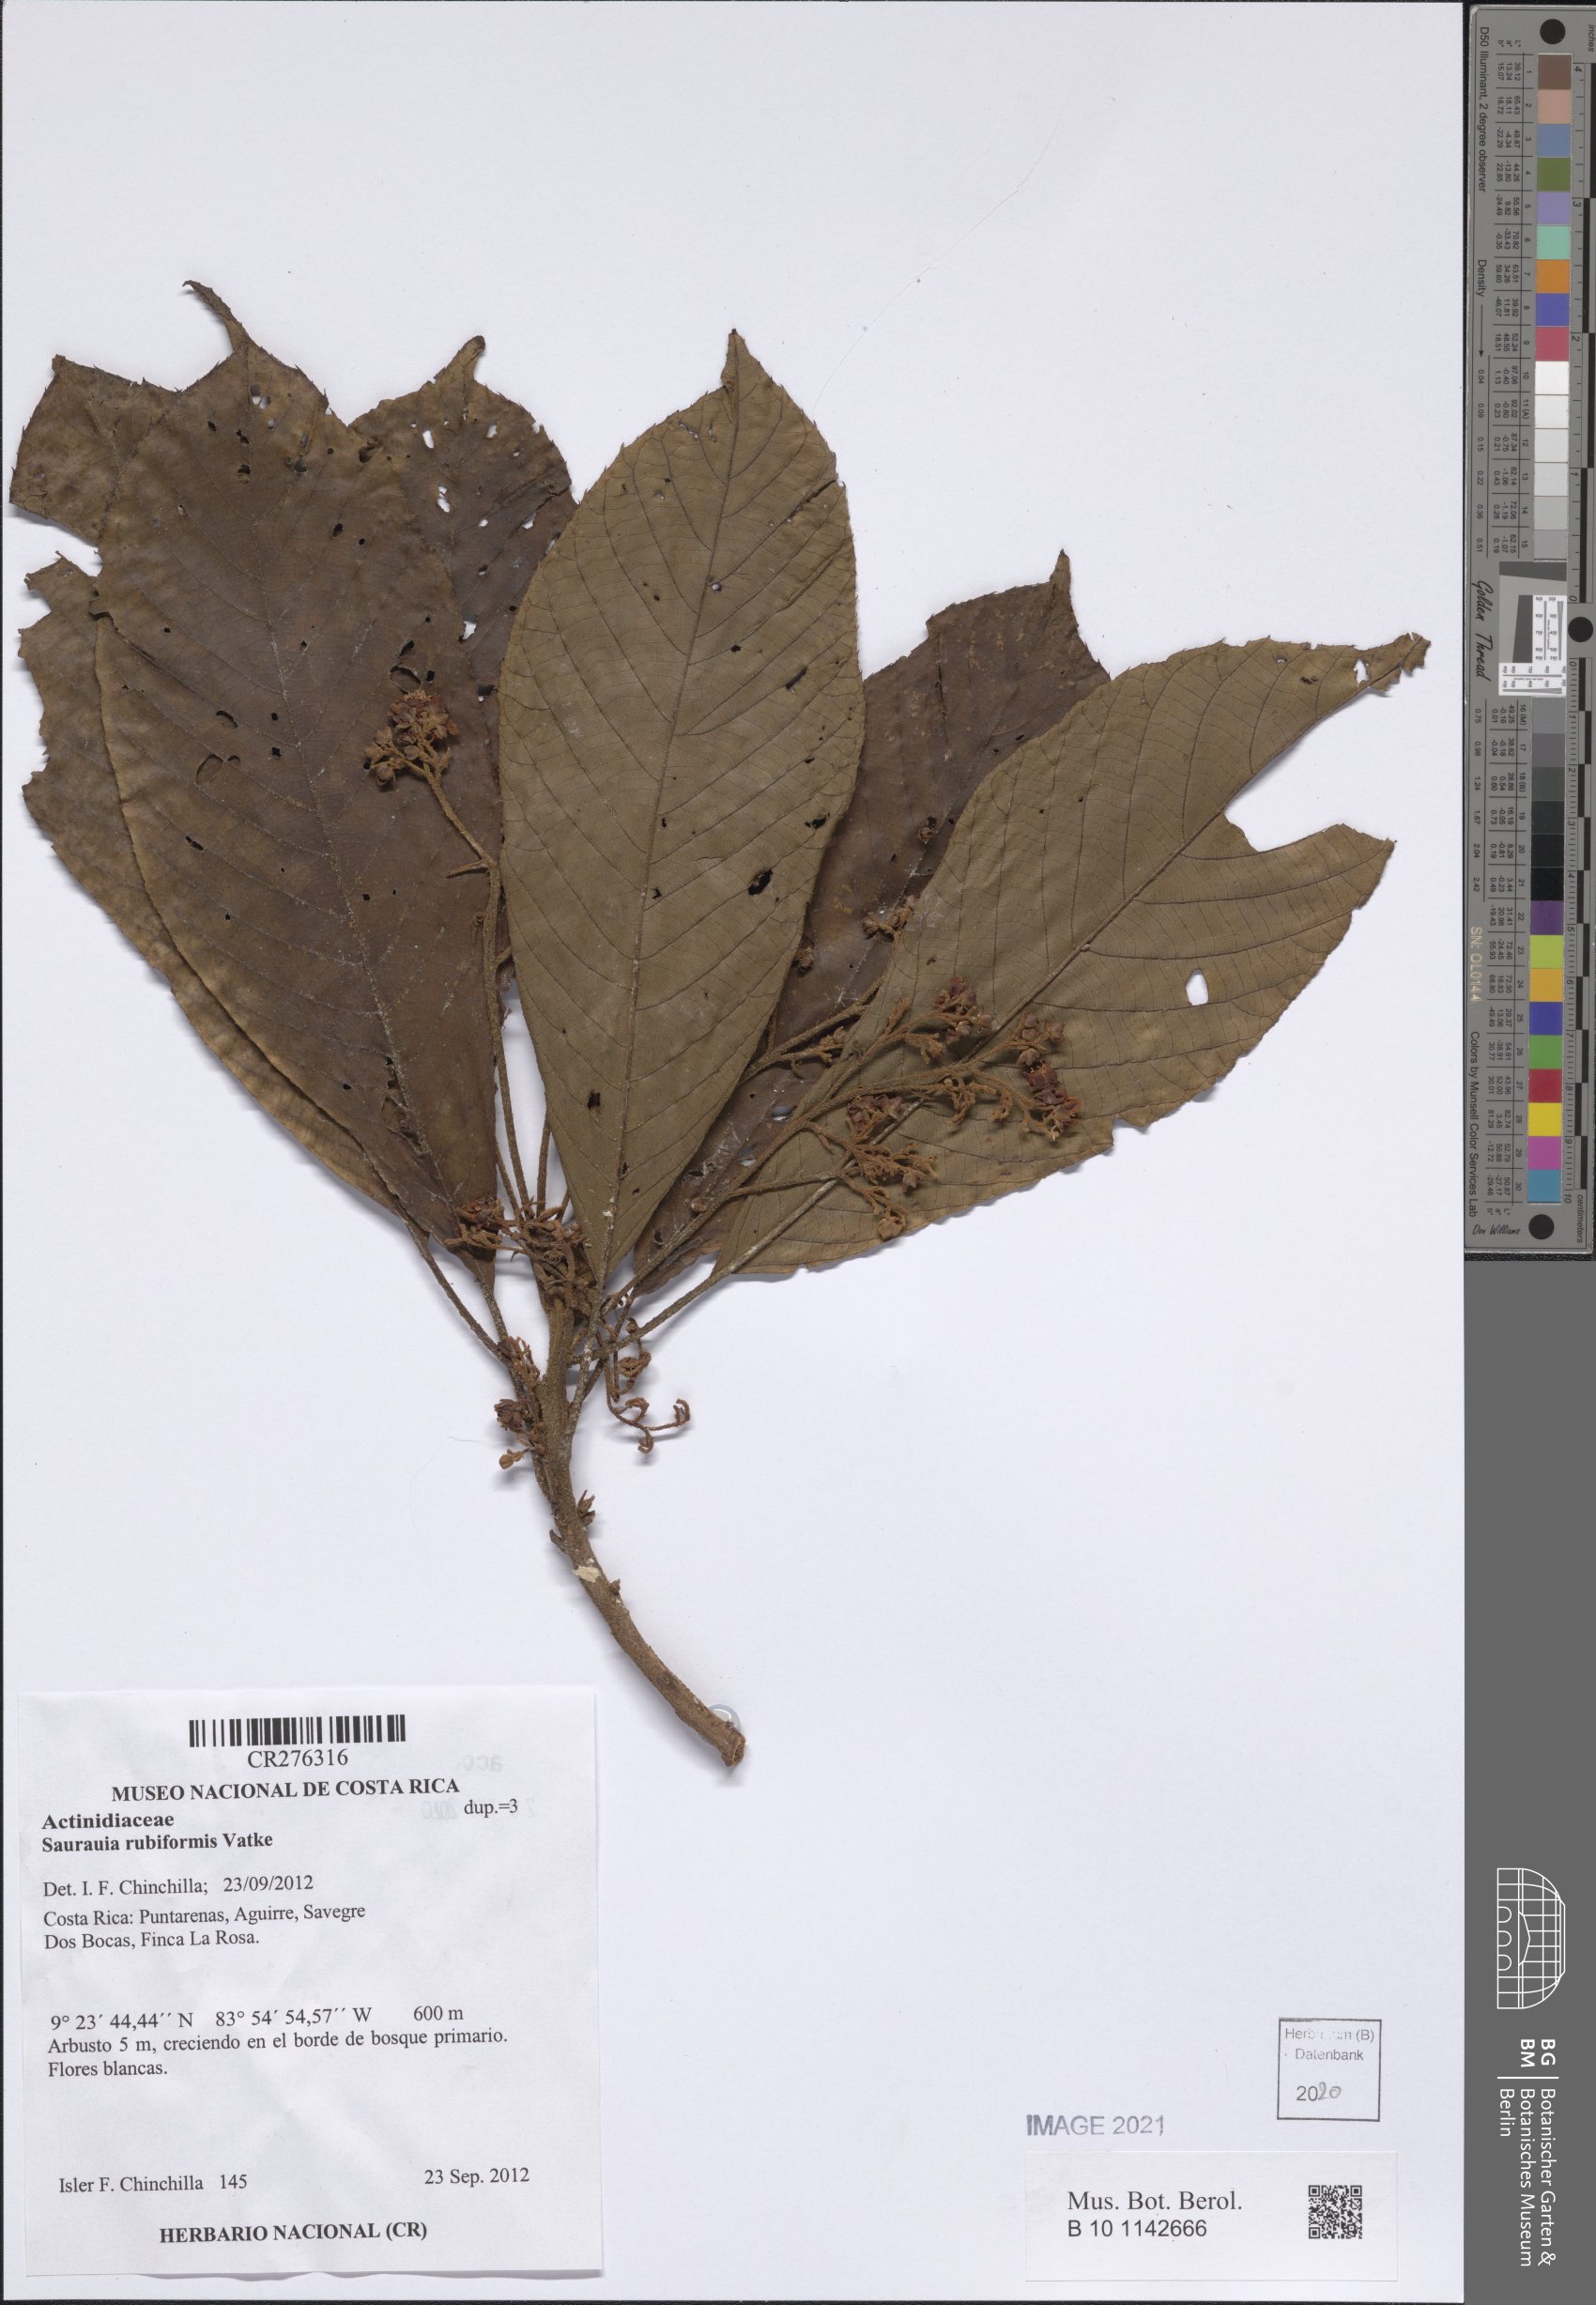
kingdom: Plantae
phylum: Tracheophyta
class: Magnoliopsida
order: Ericales
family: Actinidiaceae
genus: Saurauia
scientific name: Saurauia rubiformis
